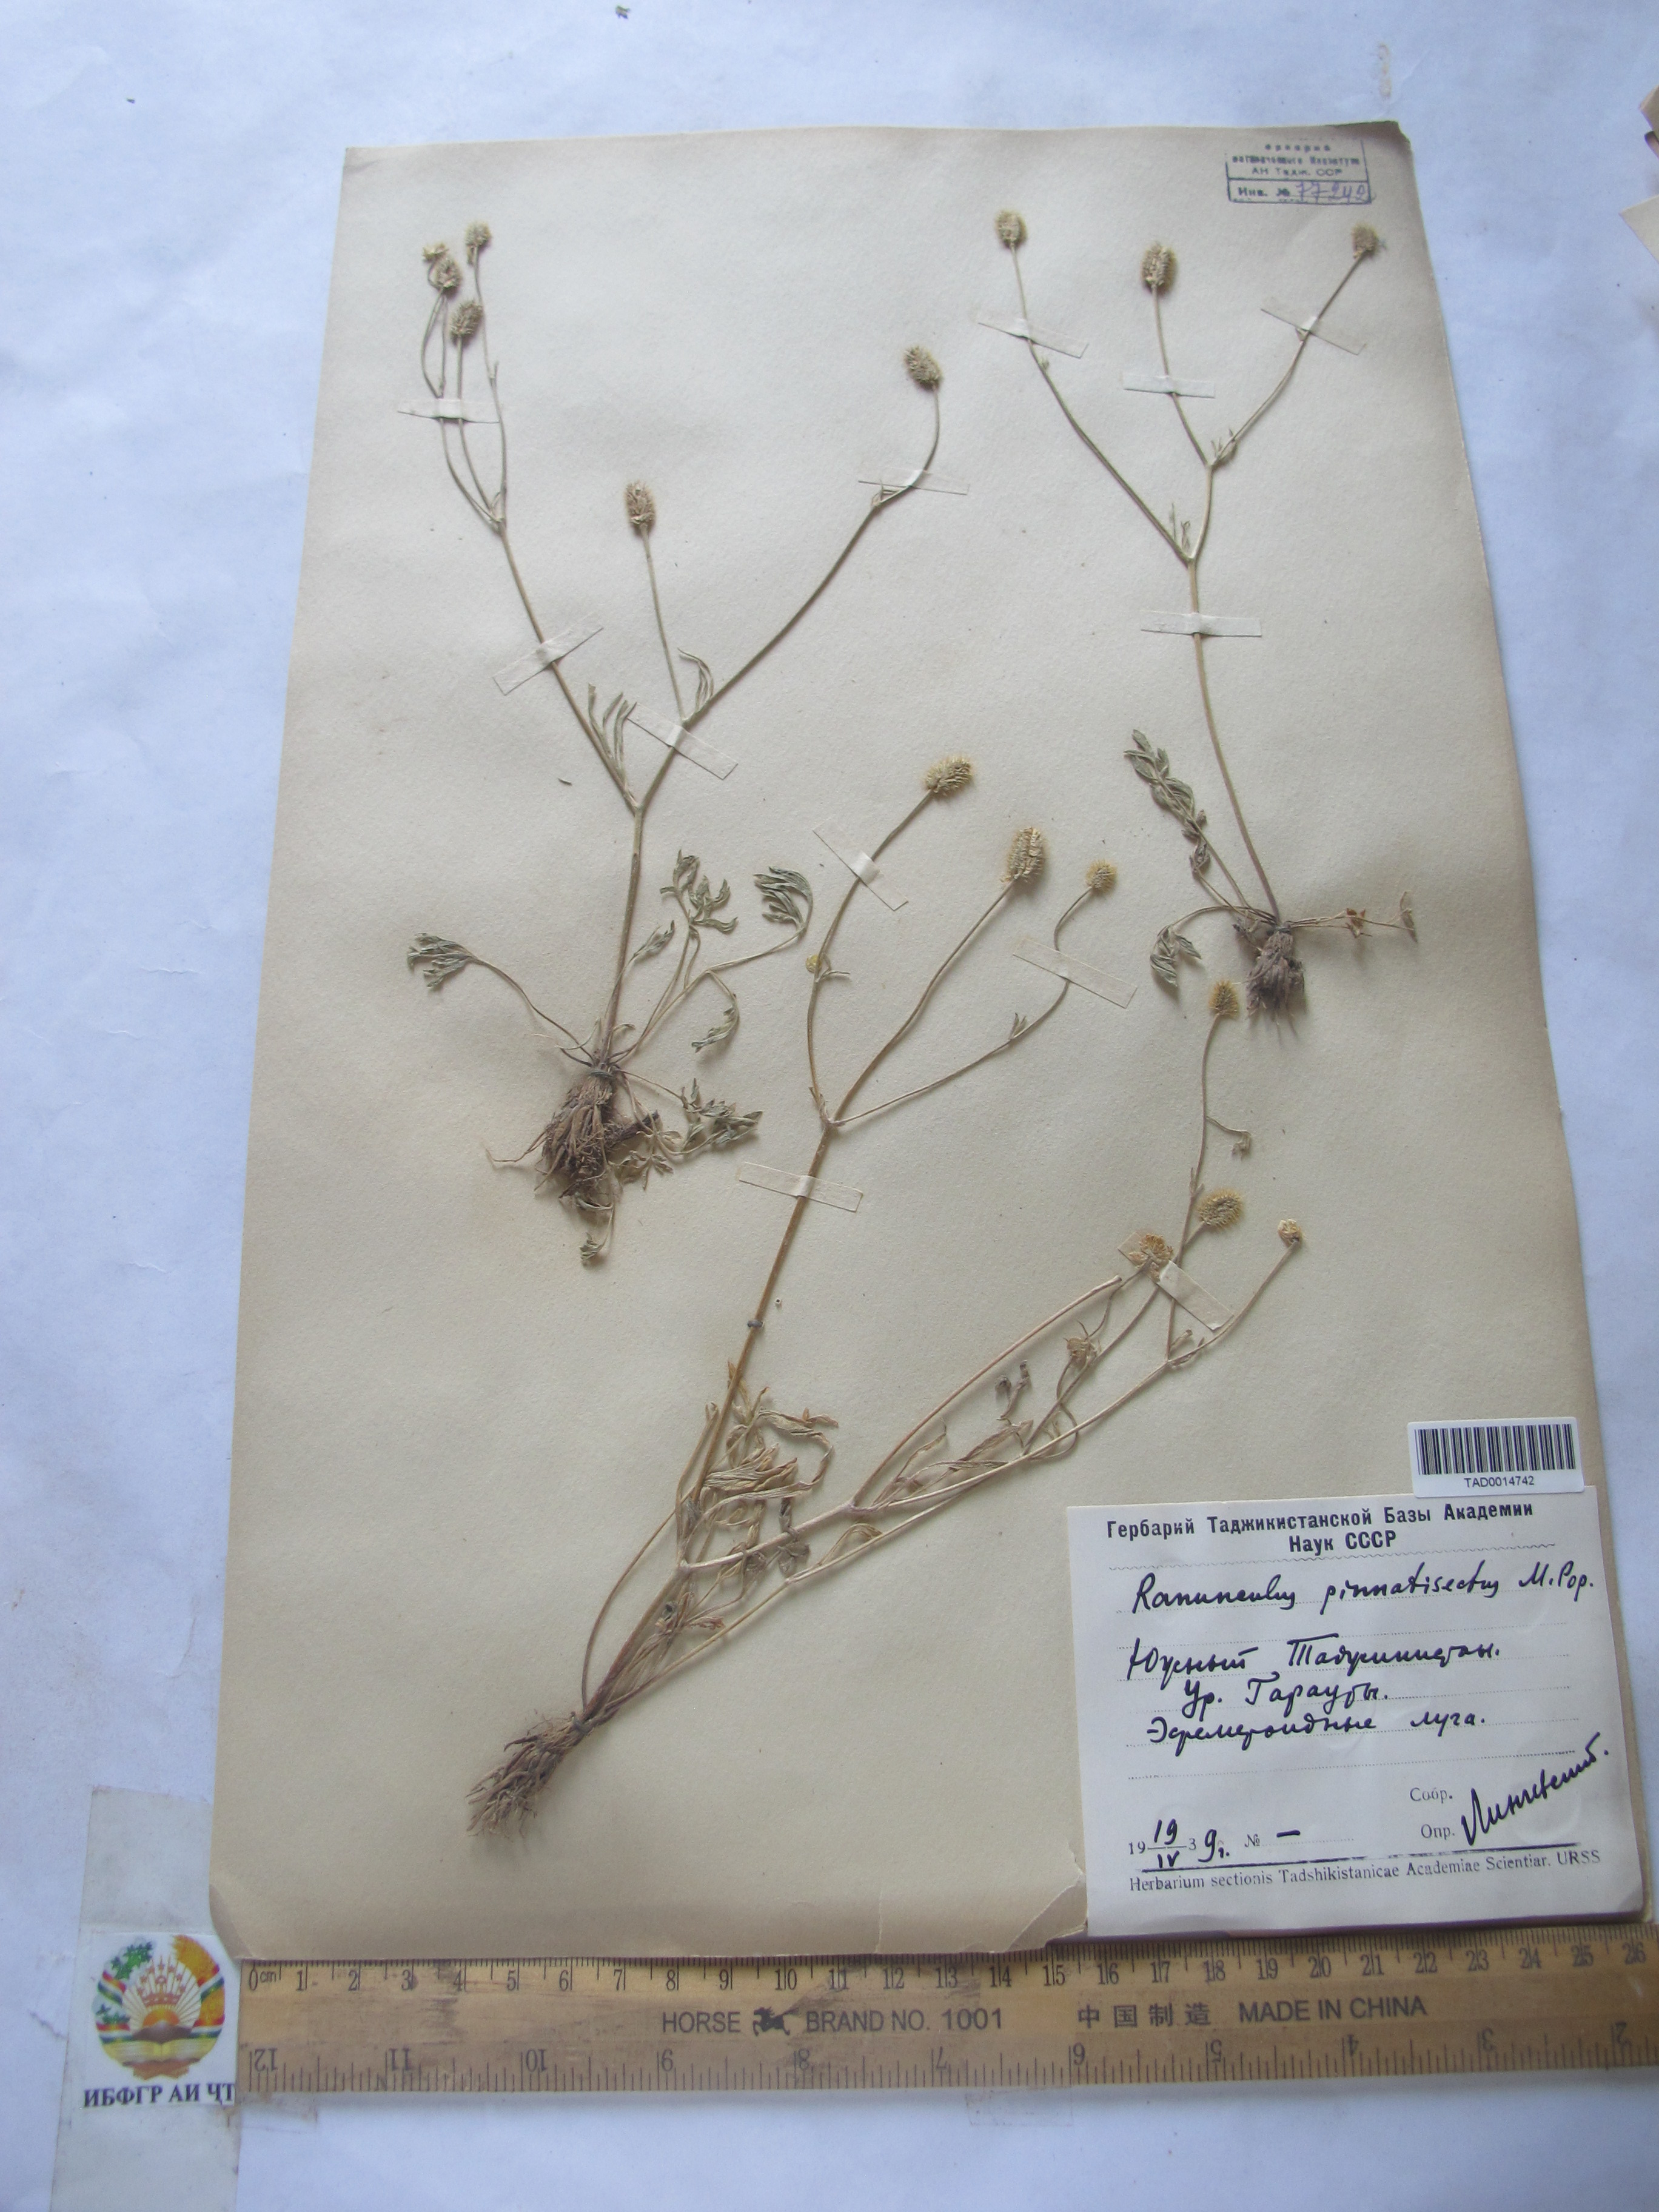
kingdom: Plantae
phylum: Tracheophyta
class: Magnoliopsida
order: Ranunculales
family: Ranunculaceae
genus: Ranunculus
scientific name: Ranunculus pinnatisectus
